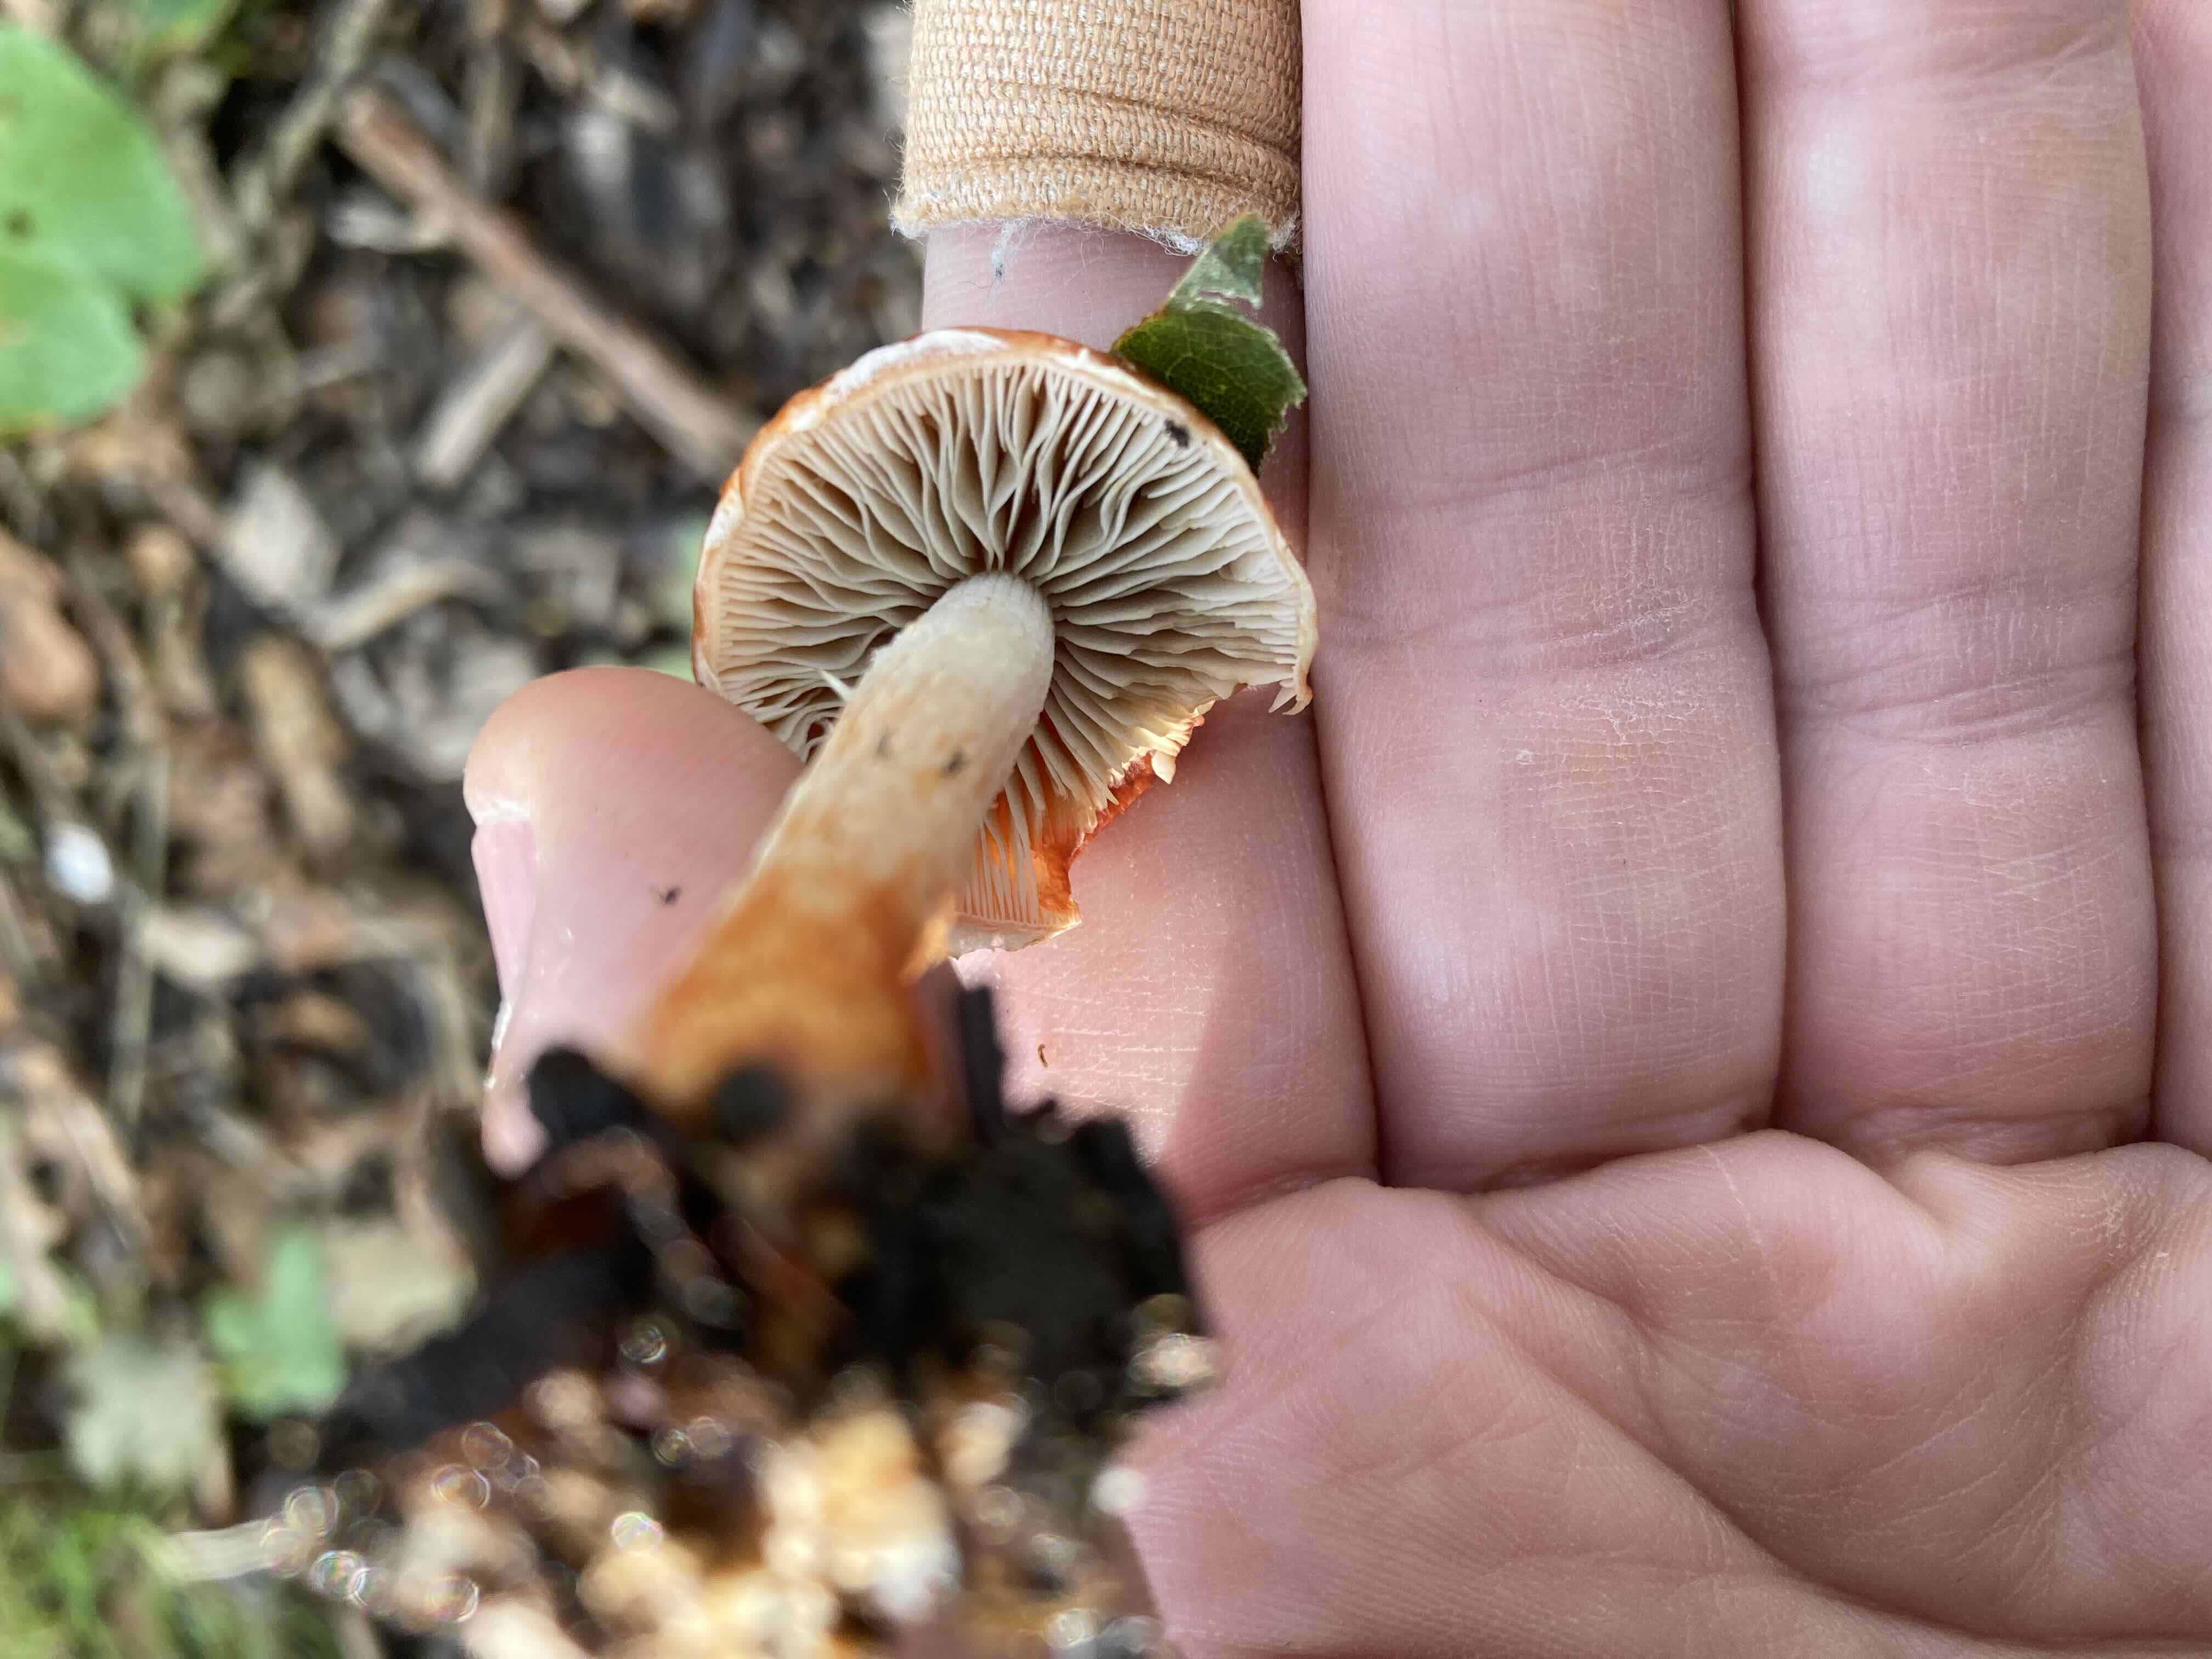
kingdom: Fungi
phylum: Basidiomycota
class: Agaricomycetes
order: Agaricales
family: Strophariaceae
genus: Leratiomyces
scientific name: Leratiomyces ceres
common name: orange bredblad
